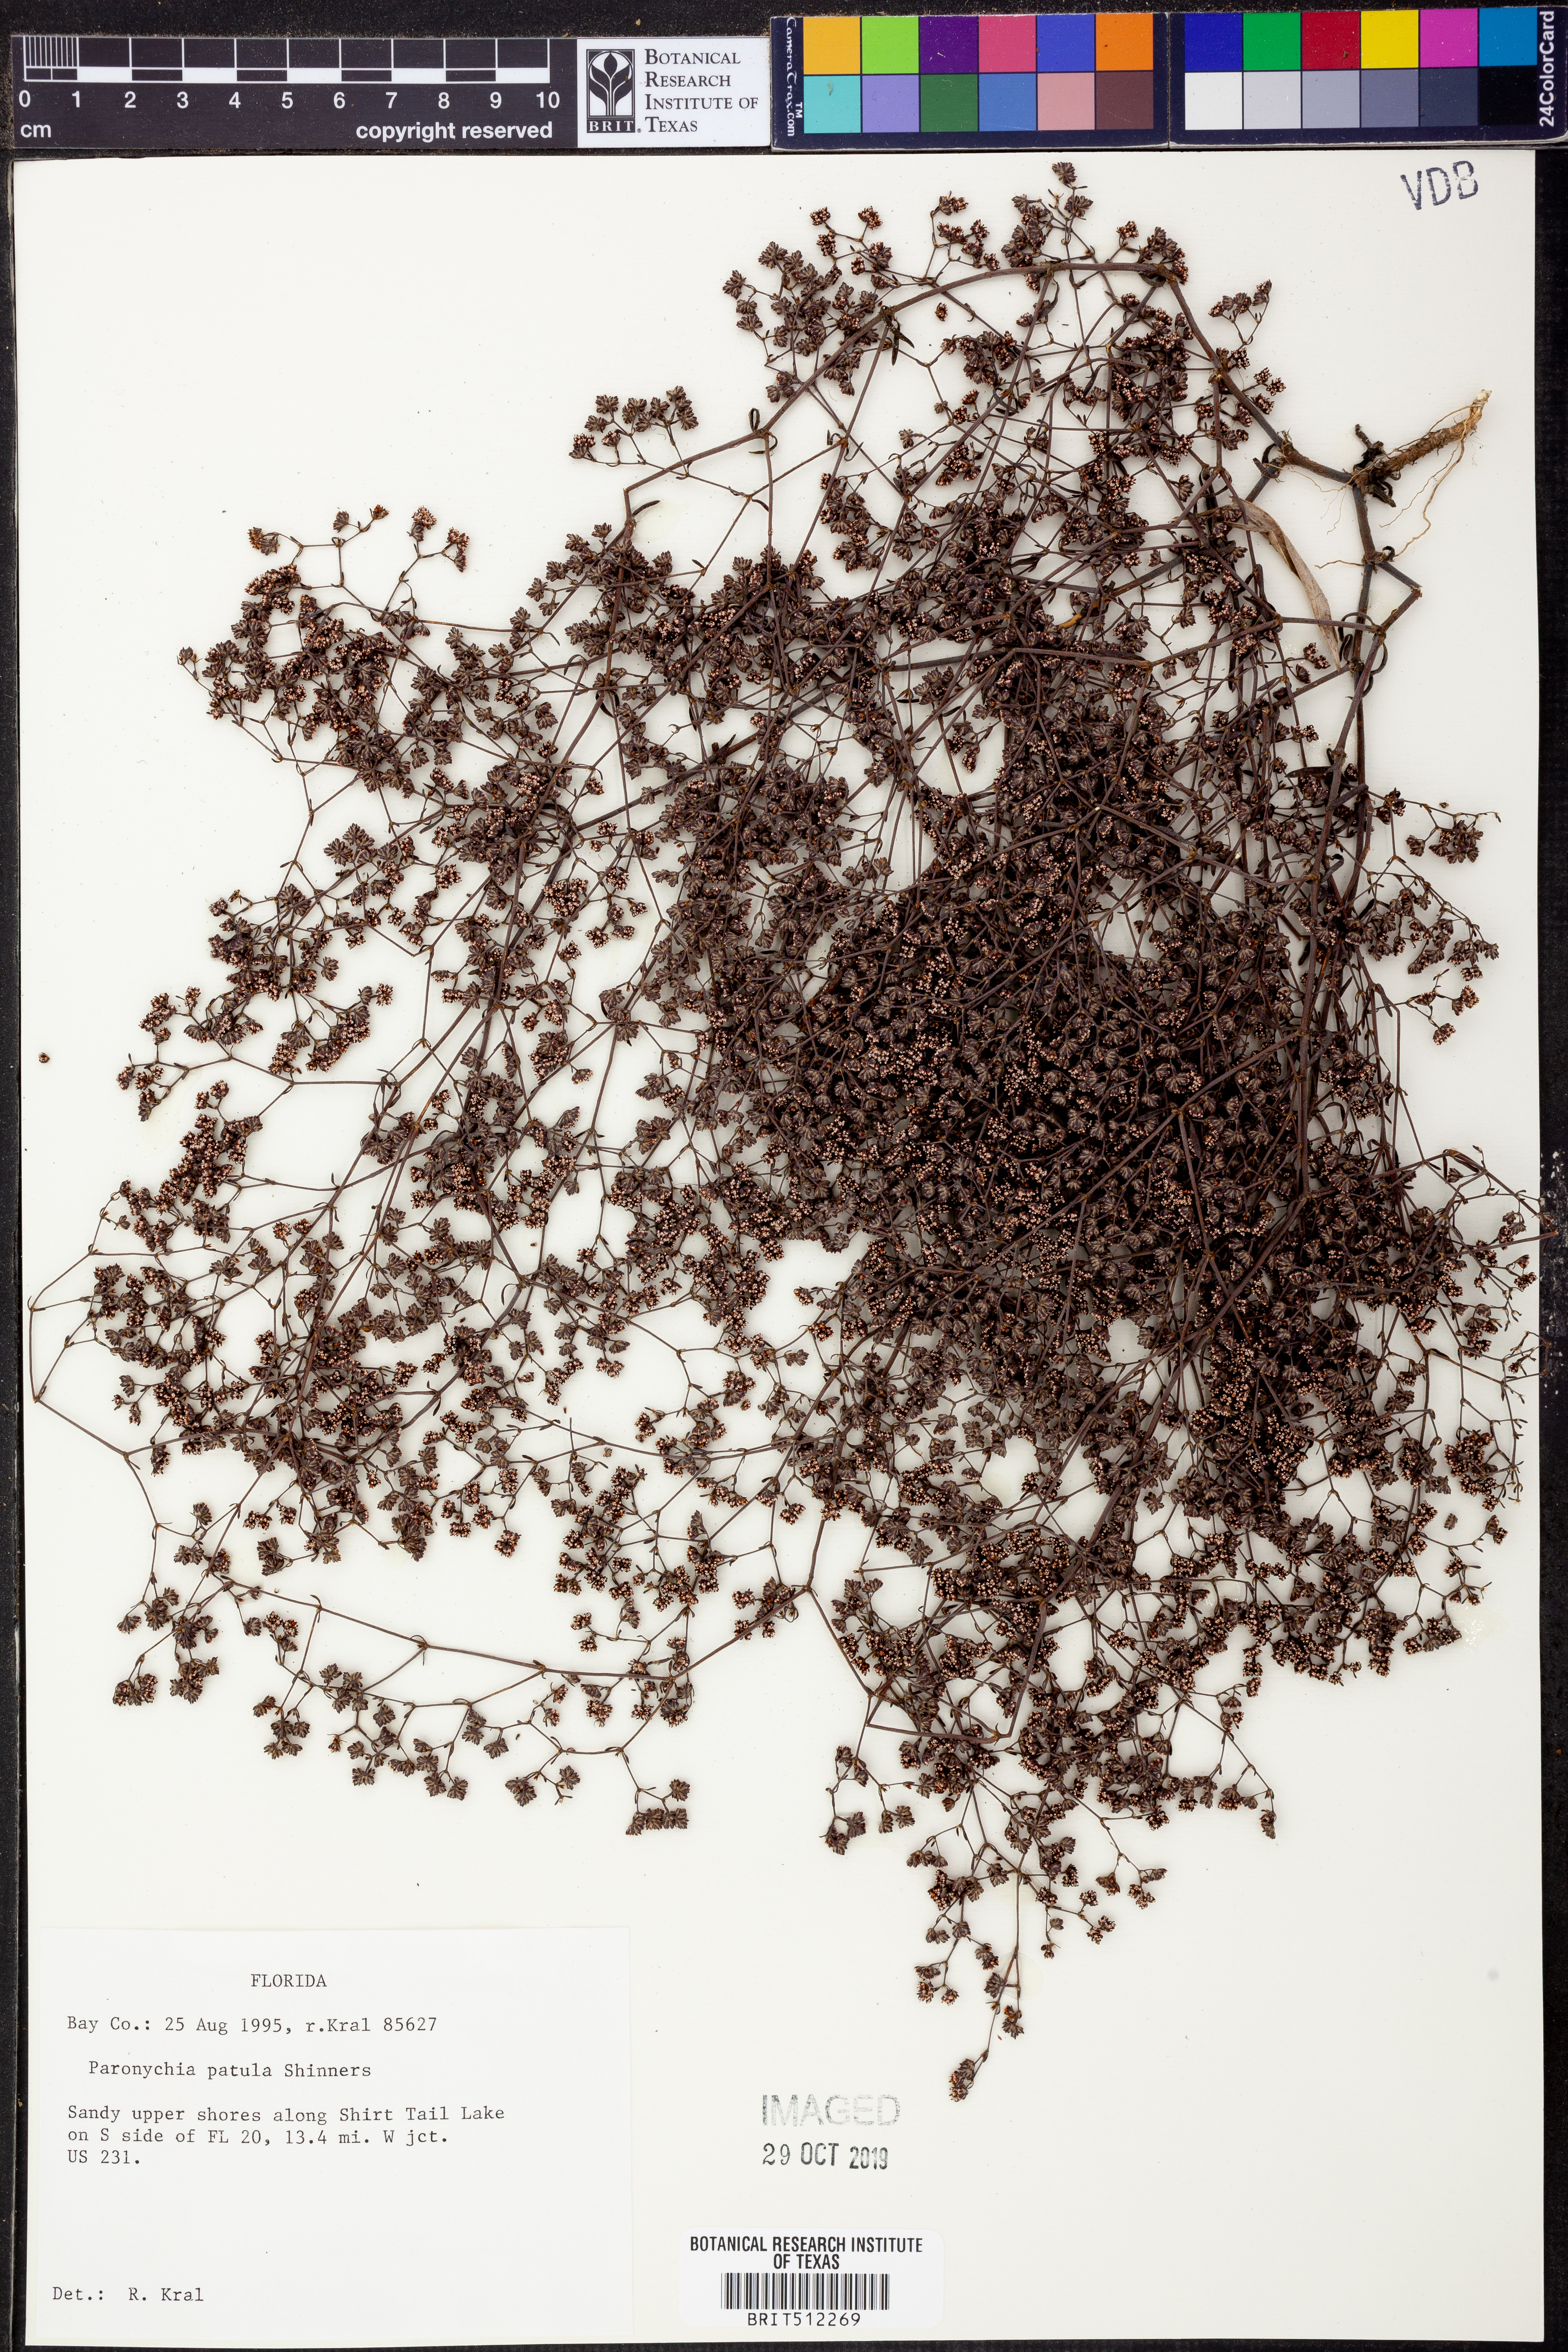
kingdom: Plantae
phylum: Tracheophyta
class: Magnoliopsida
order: Caryophyllales
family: Caryophyllaceae
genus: Paronychia
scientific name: Paronychia patula
